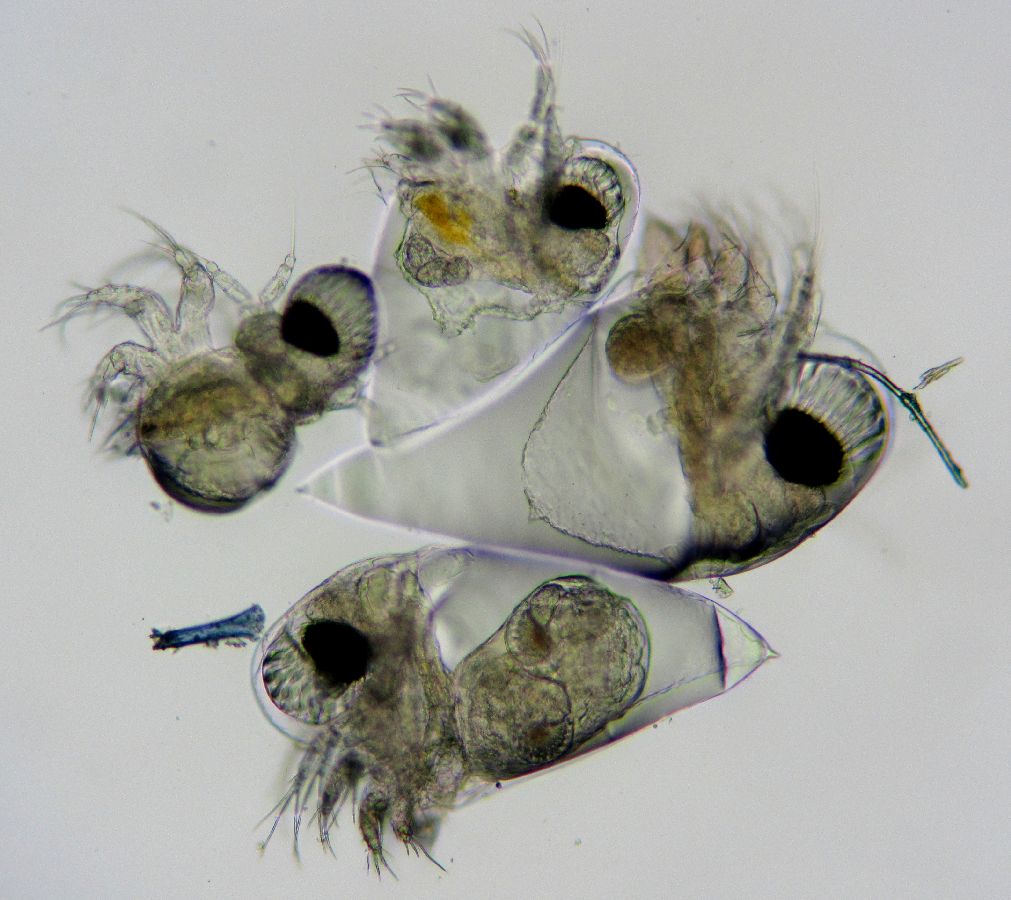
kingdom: Animalia
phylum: Arthropoda
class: Branchiopoda
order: Diplostraca
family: Podonidae
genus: Podon
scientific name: Podon leuckarti
